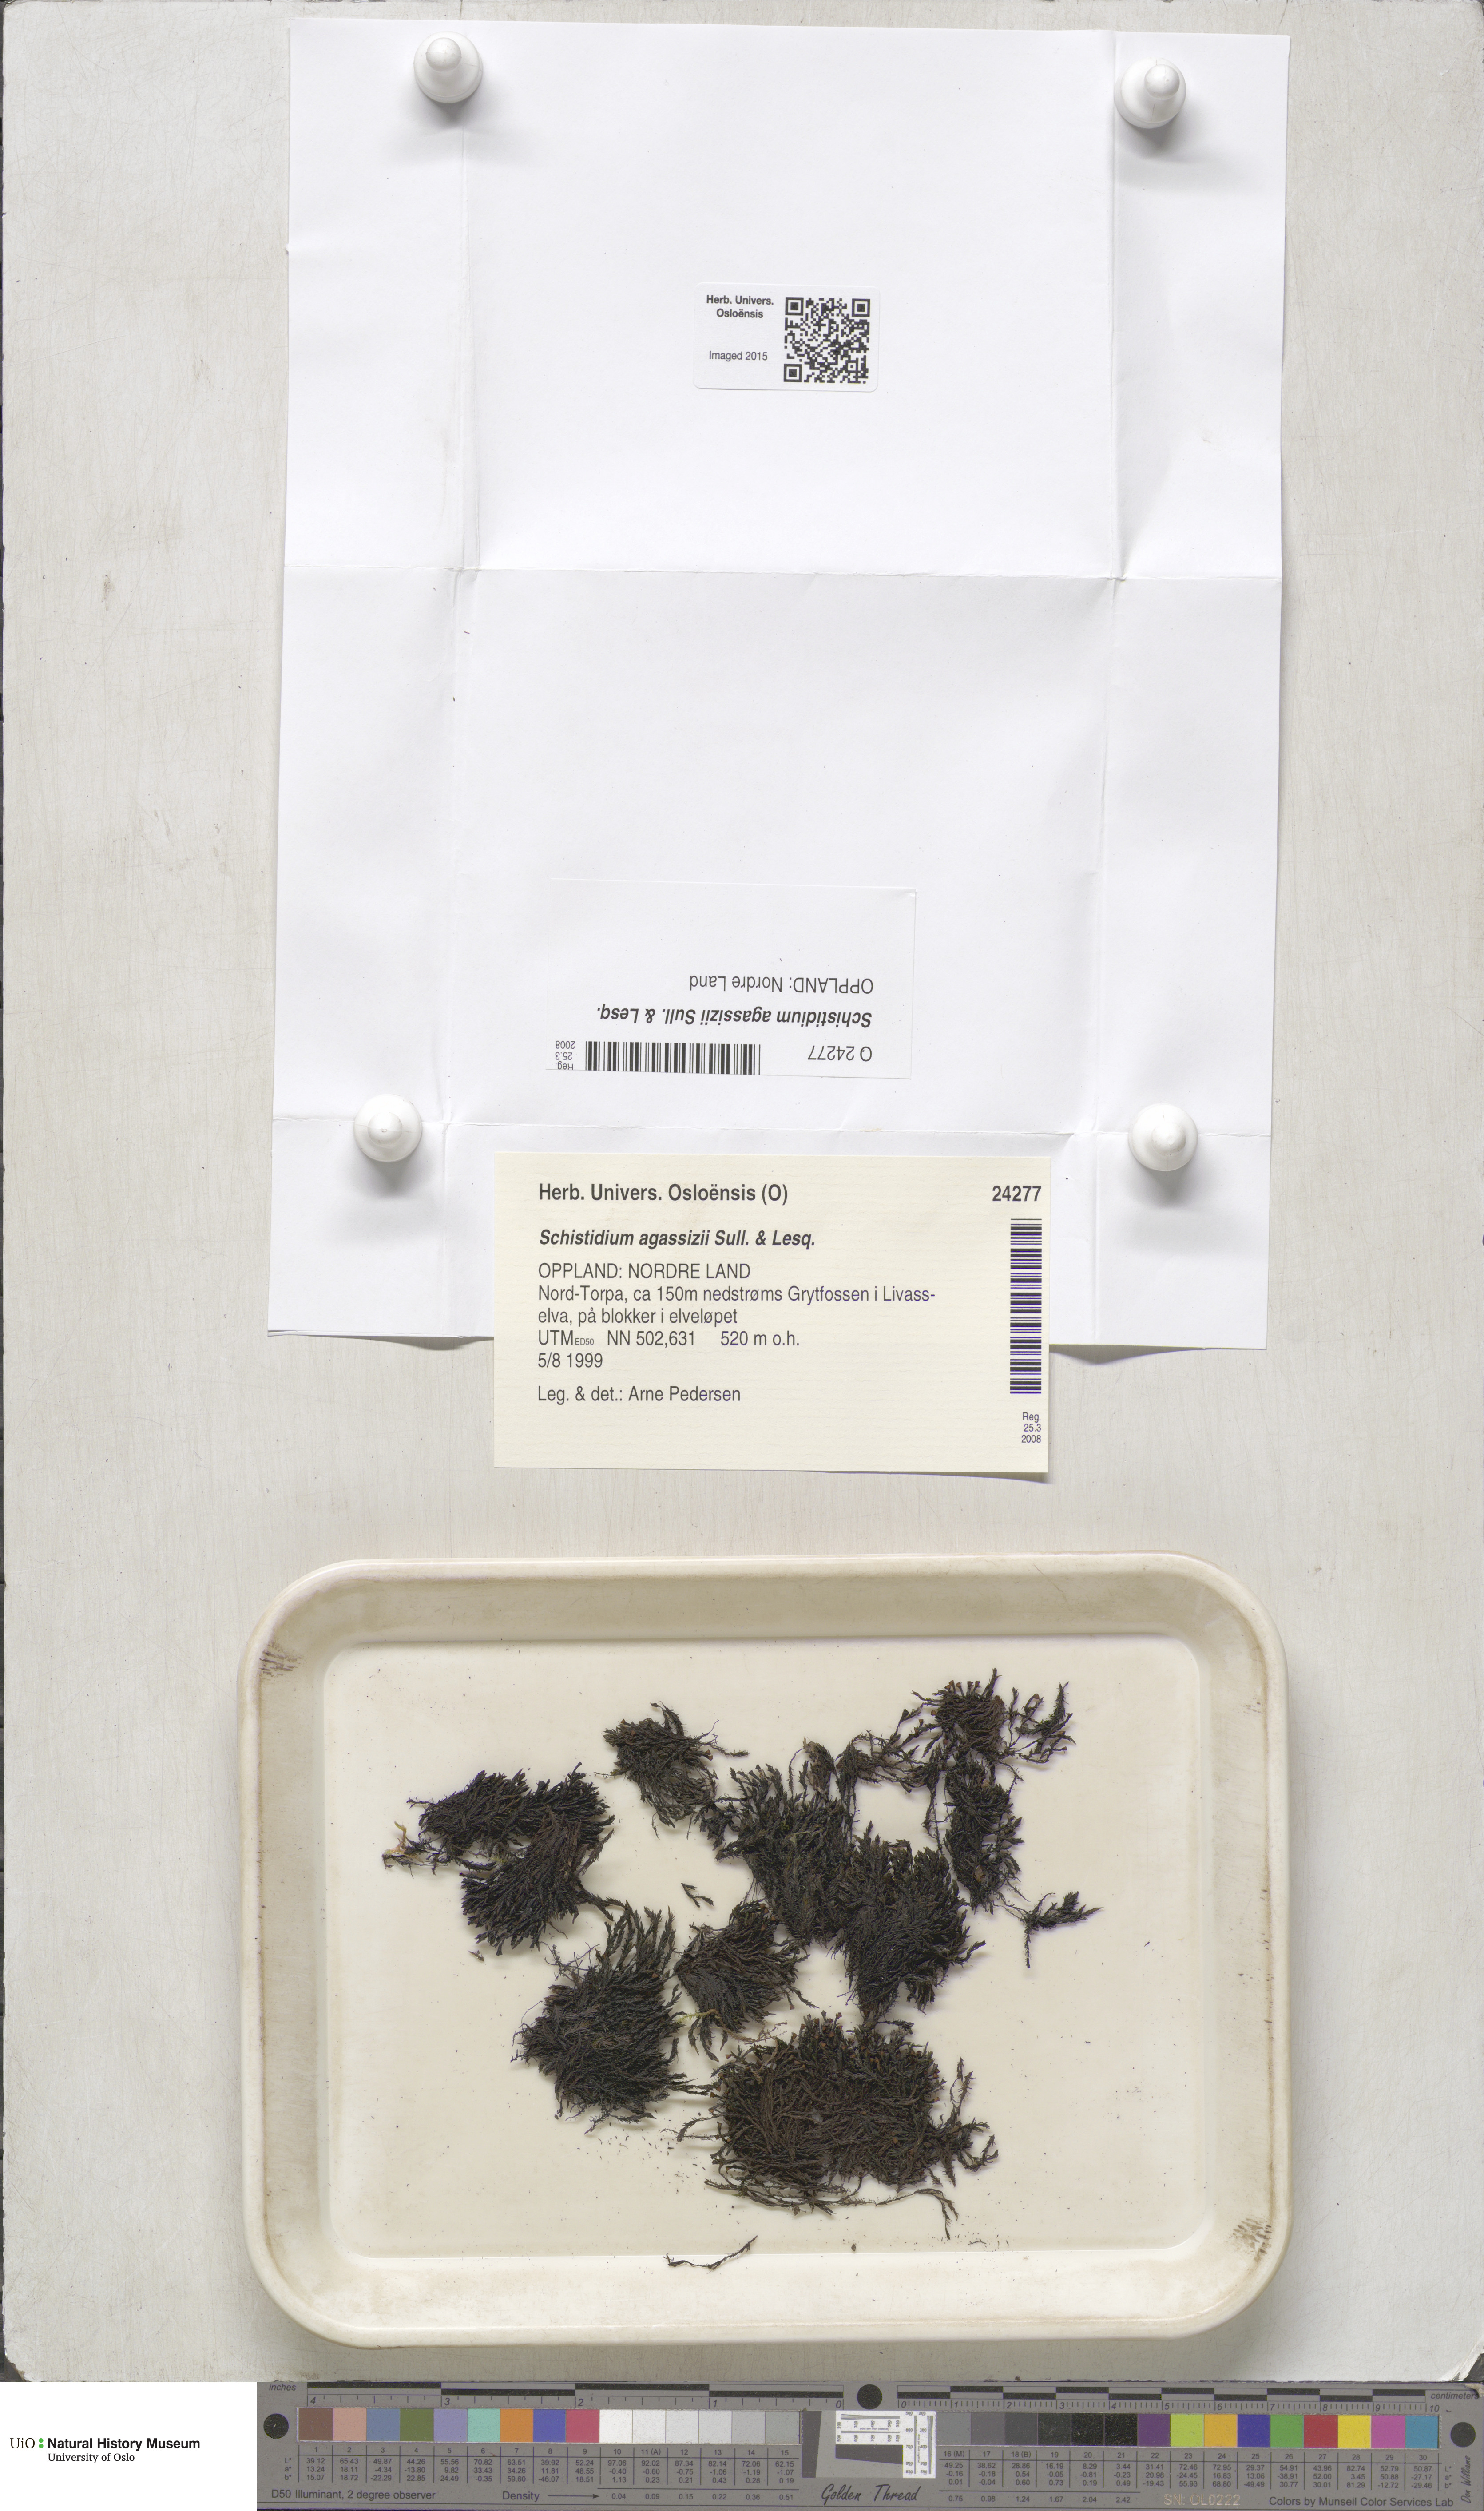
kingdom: Plantae
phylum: Bryophyta
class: Bryopsida
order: Grimmiales
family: Grimmiaceae
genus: Schistidium
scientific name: Schistidium agassizii
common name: Agassiz's bloom moss
